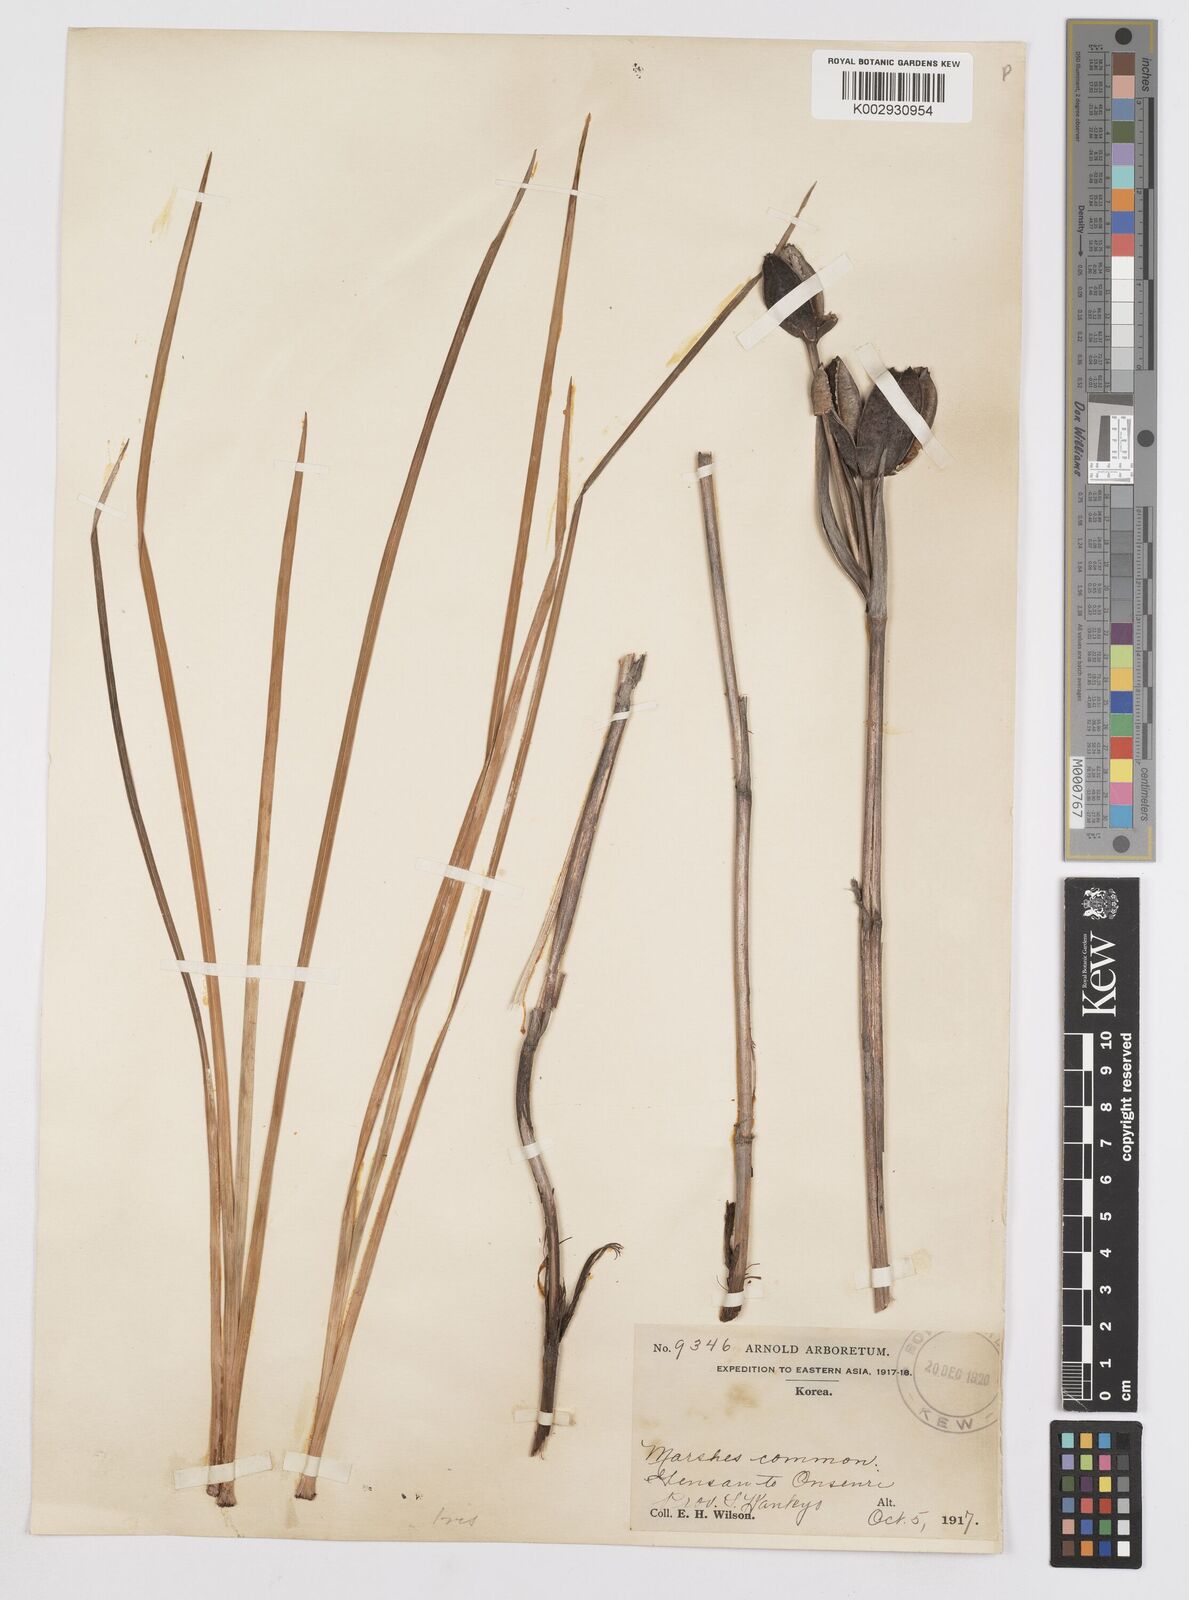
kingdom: Plantae
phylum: Tracheophyta
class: Liliopsida
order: Asparagales
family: Iridaceae
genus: Iris
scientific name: Iris
